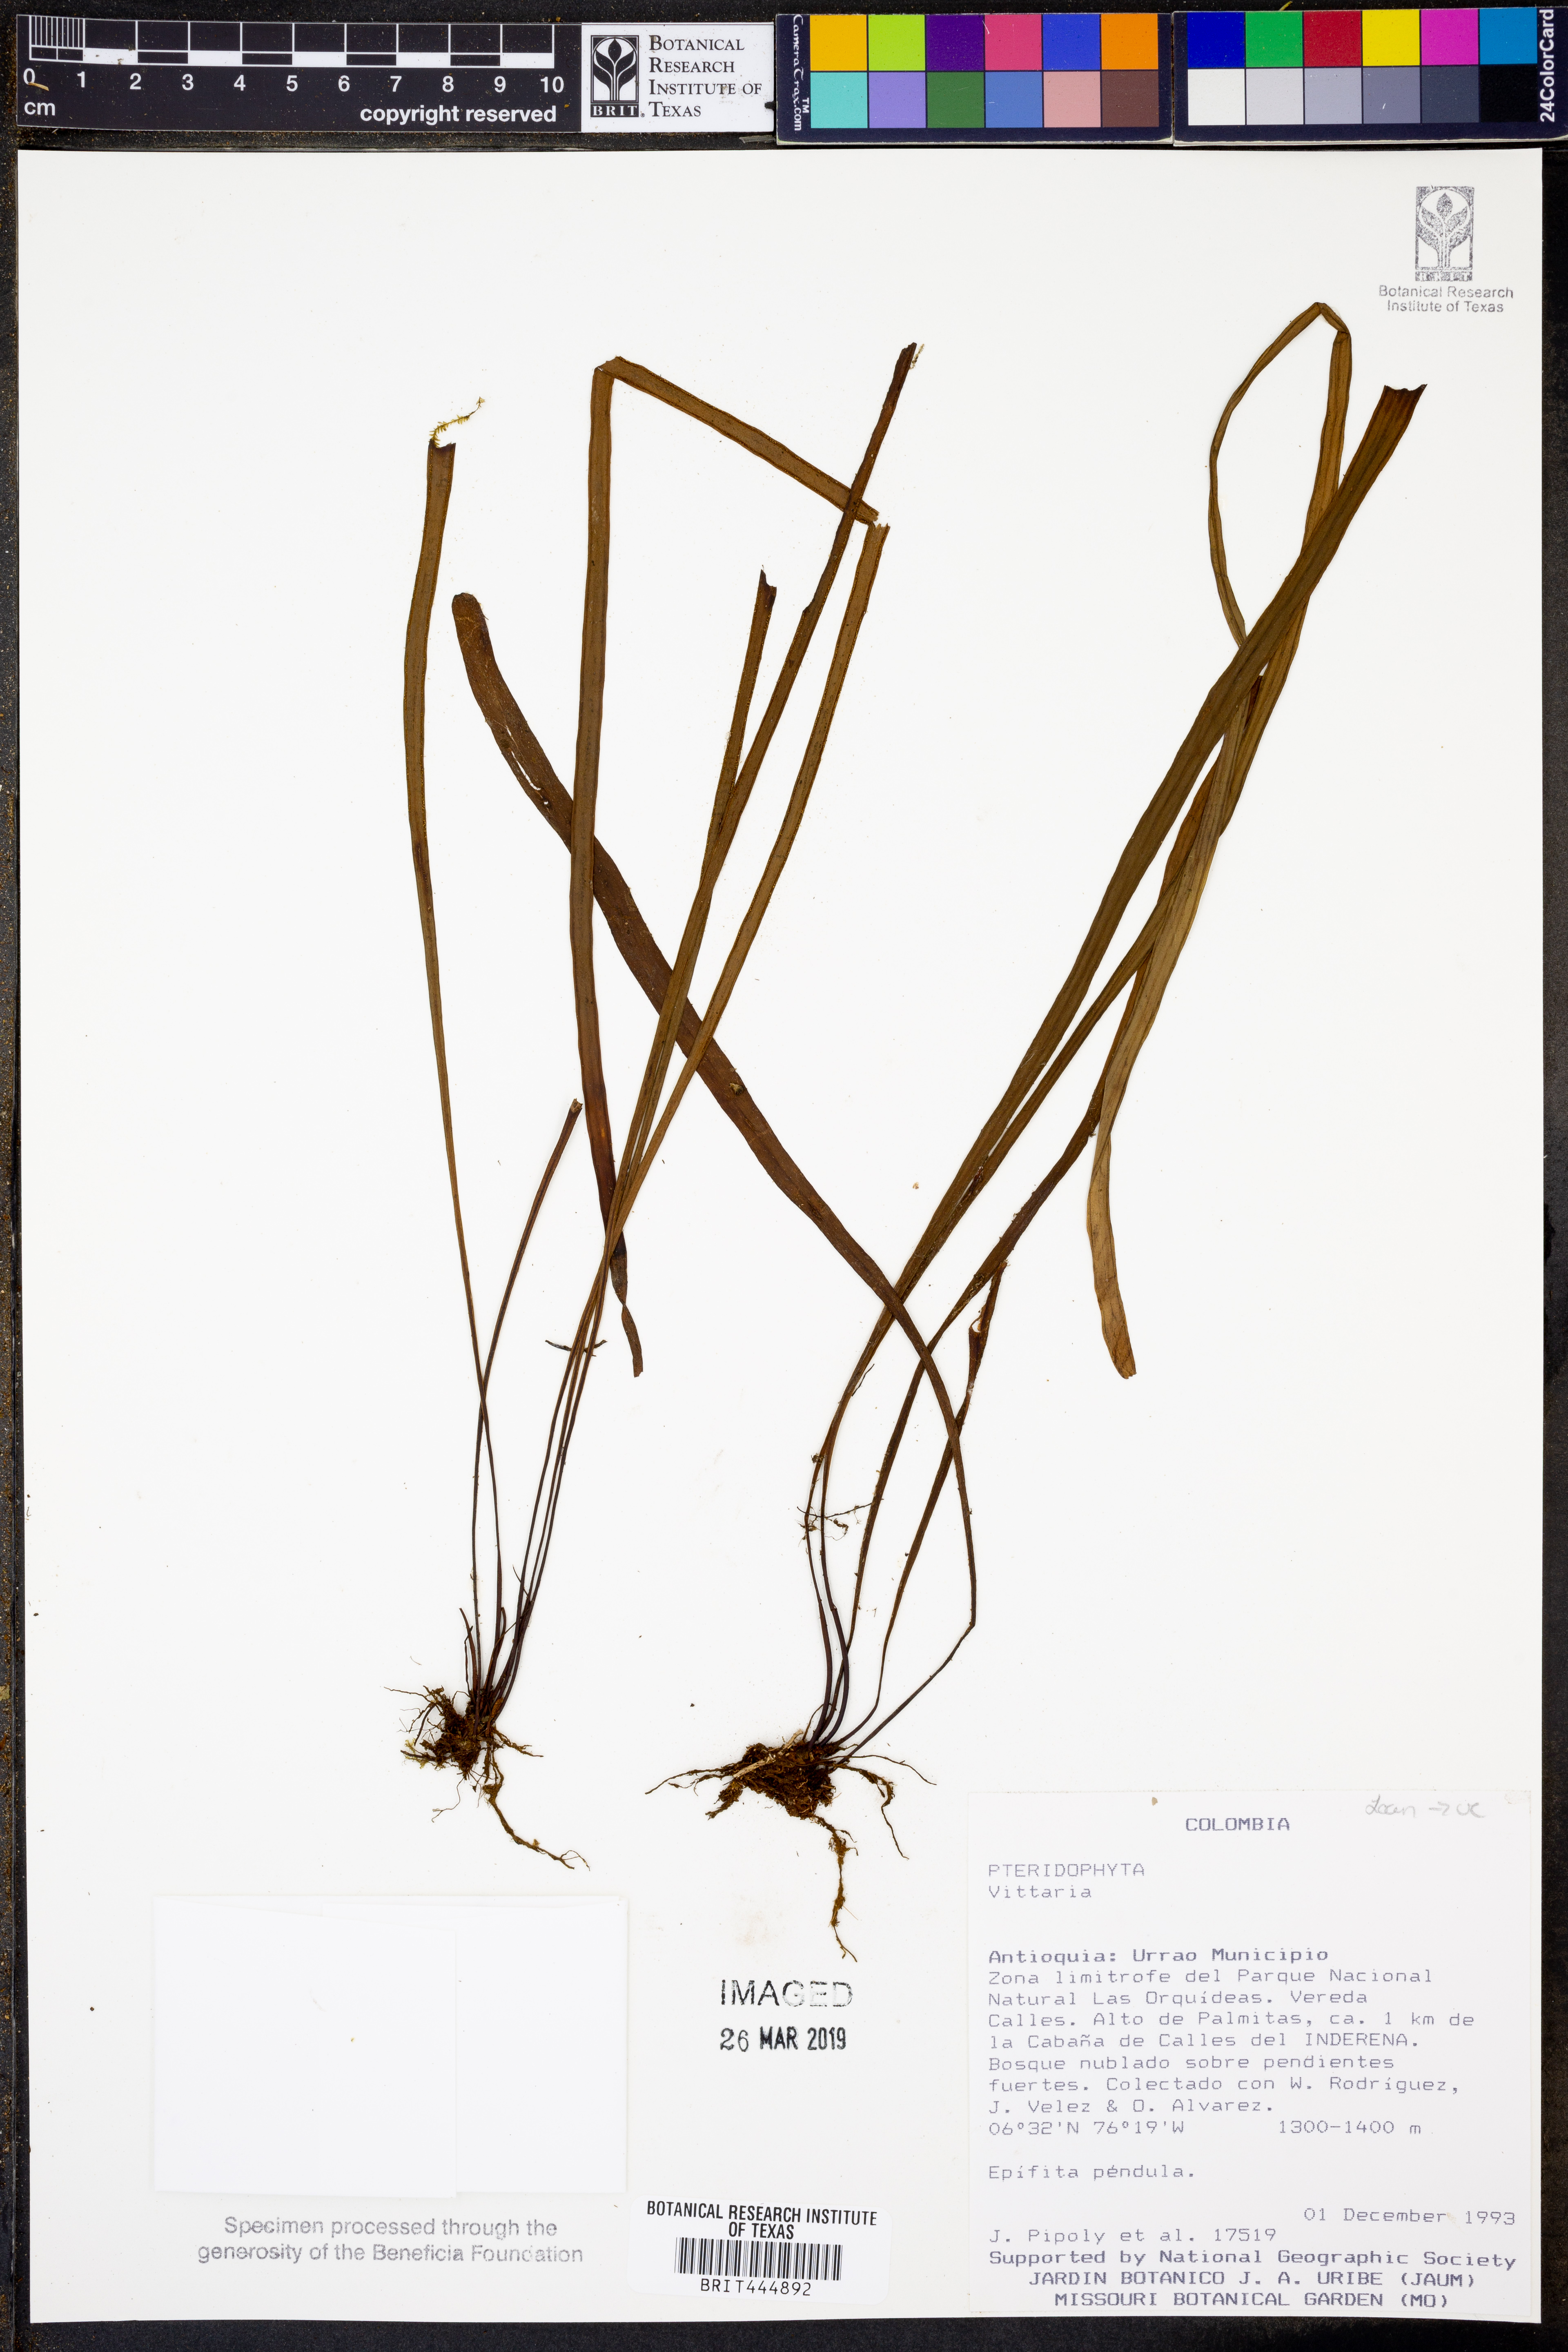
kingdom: Plantae
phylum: Tracheophyta
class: Polypodiopsida
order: Polypodiales
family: Pteridaceae
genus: Vittaria
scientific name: Vittaria
